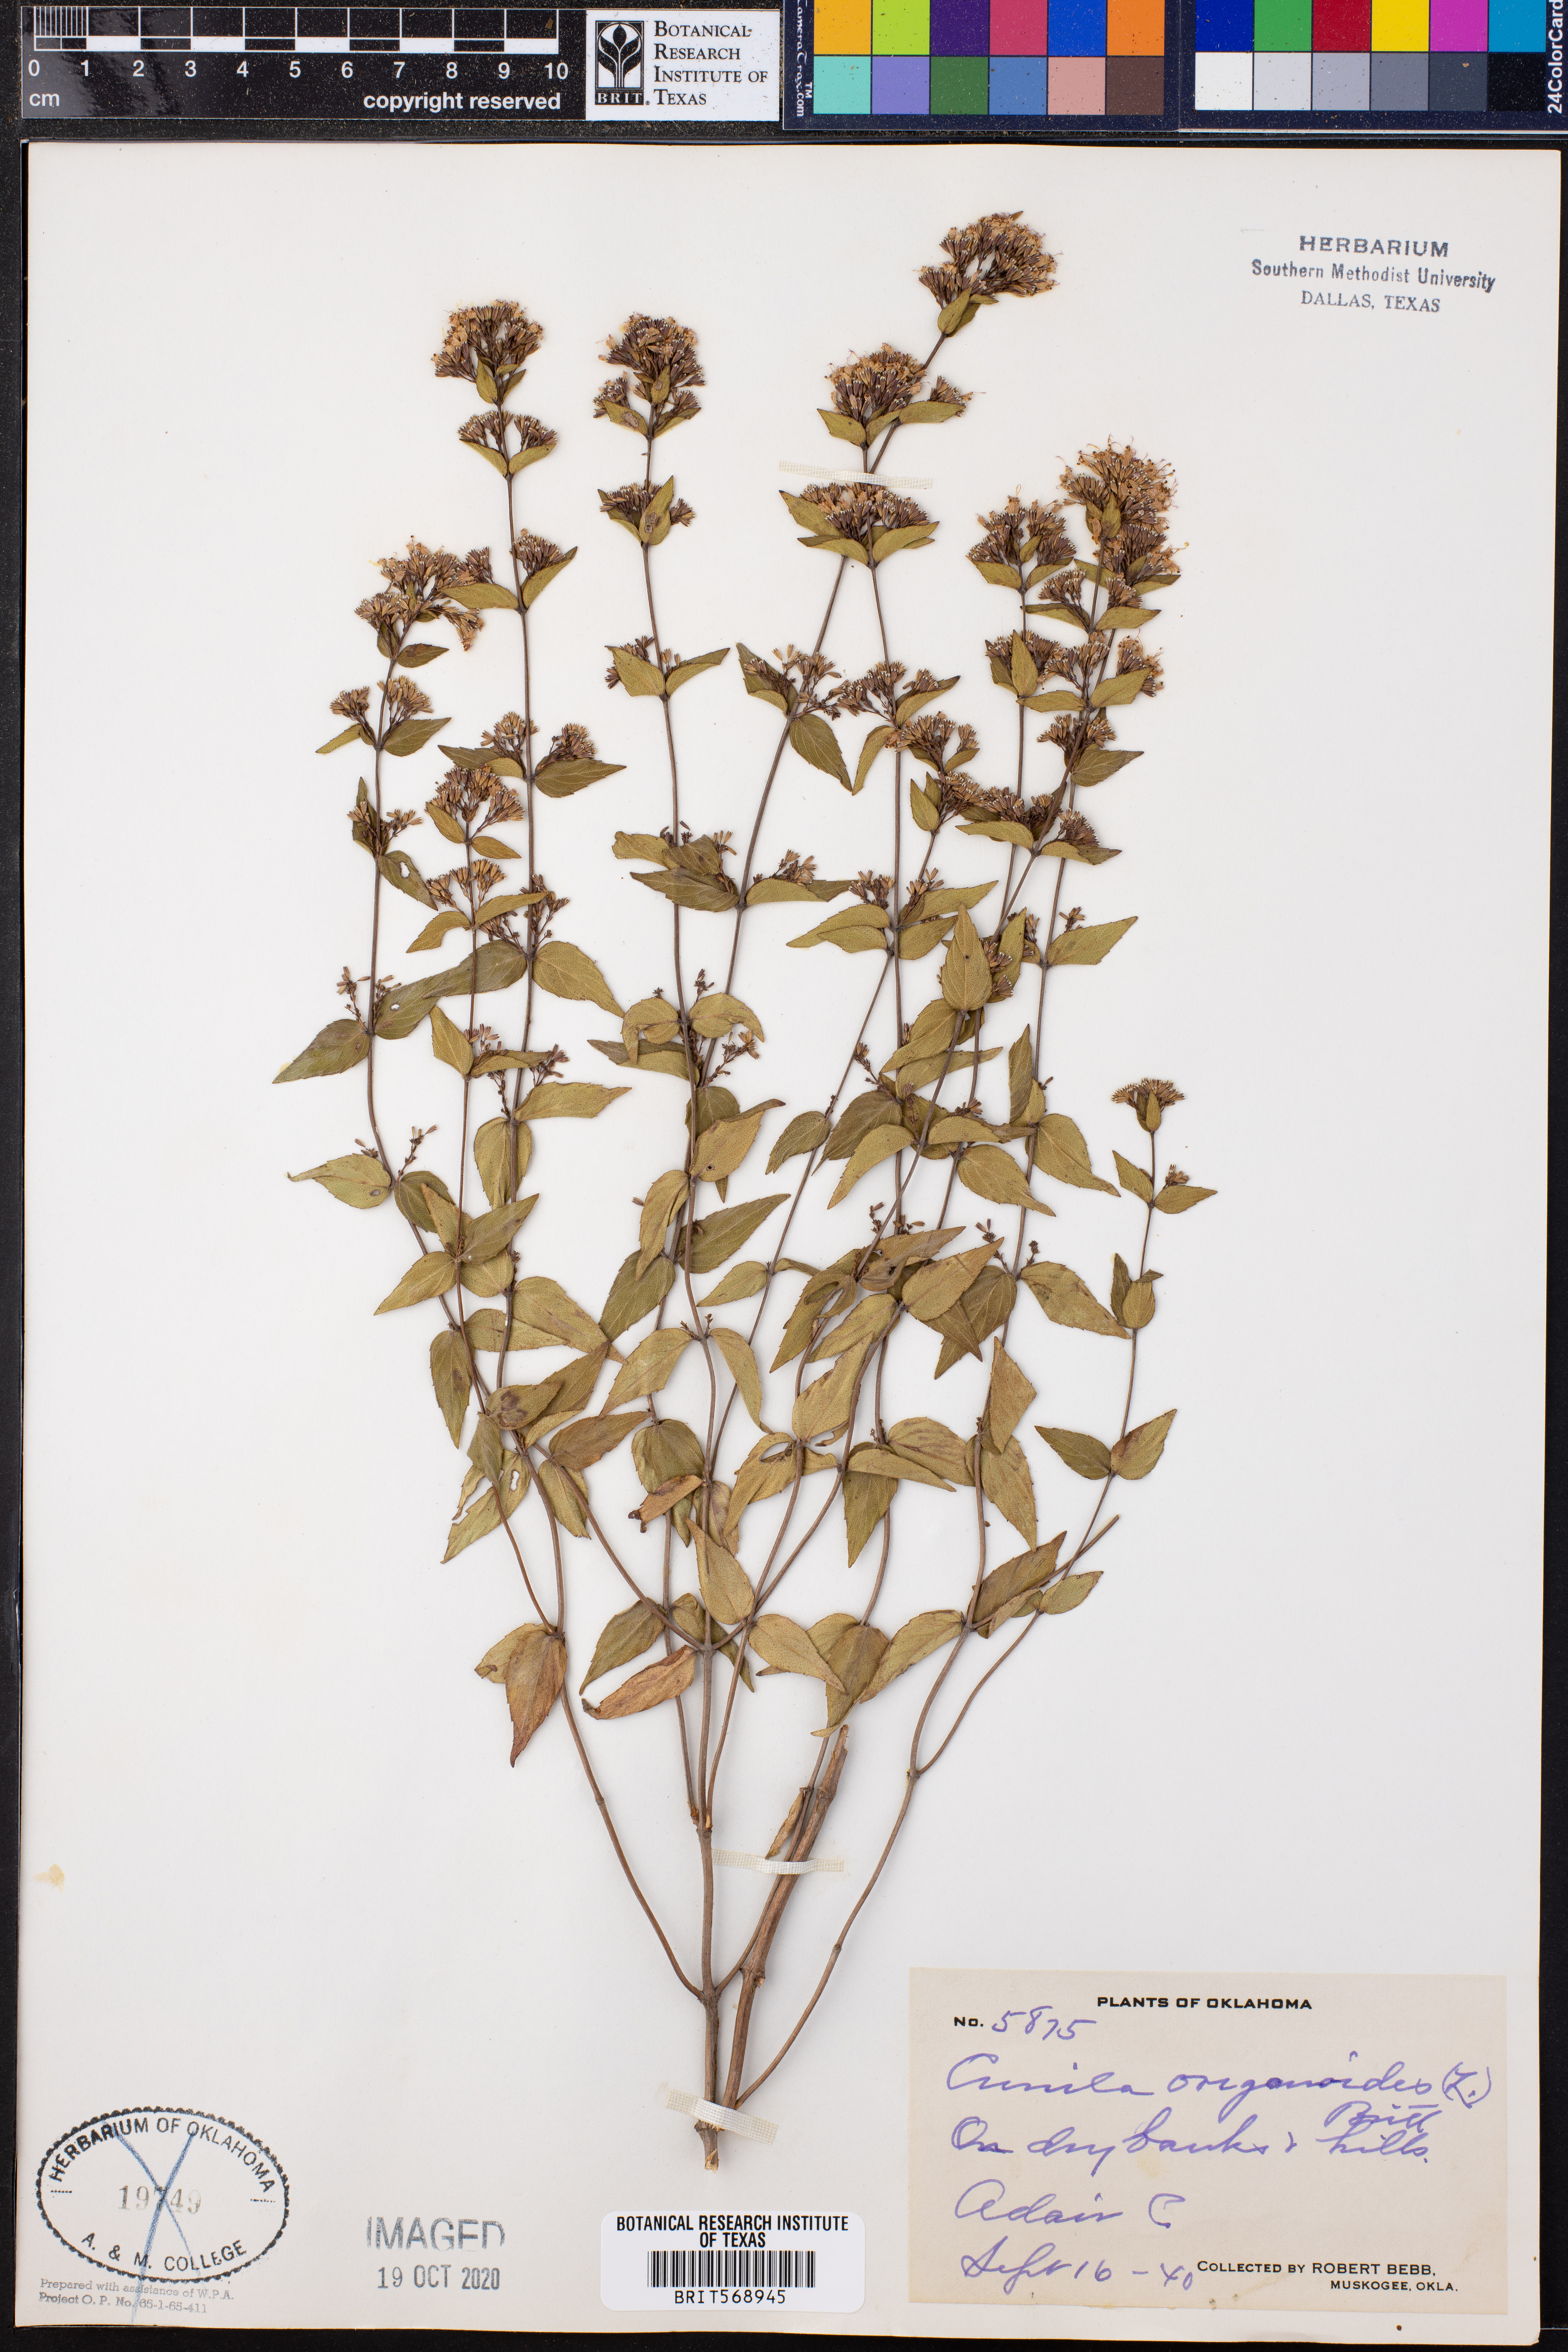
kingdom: Plantae
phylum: Tracheophyta
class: Magnoliopsida
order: Lamiales
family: Lamiaceae
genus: Cunila
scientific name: Cunila origanoides
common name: American dittany
